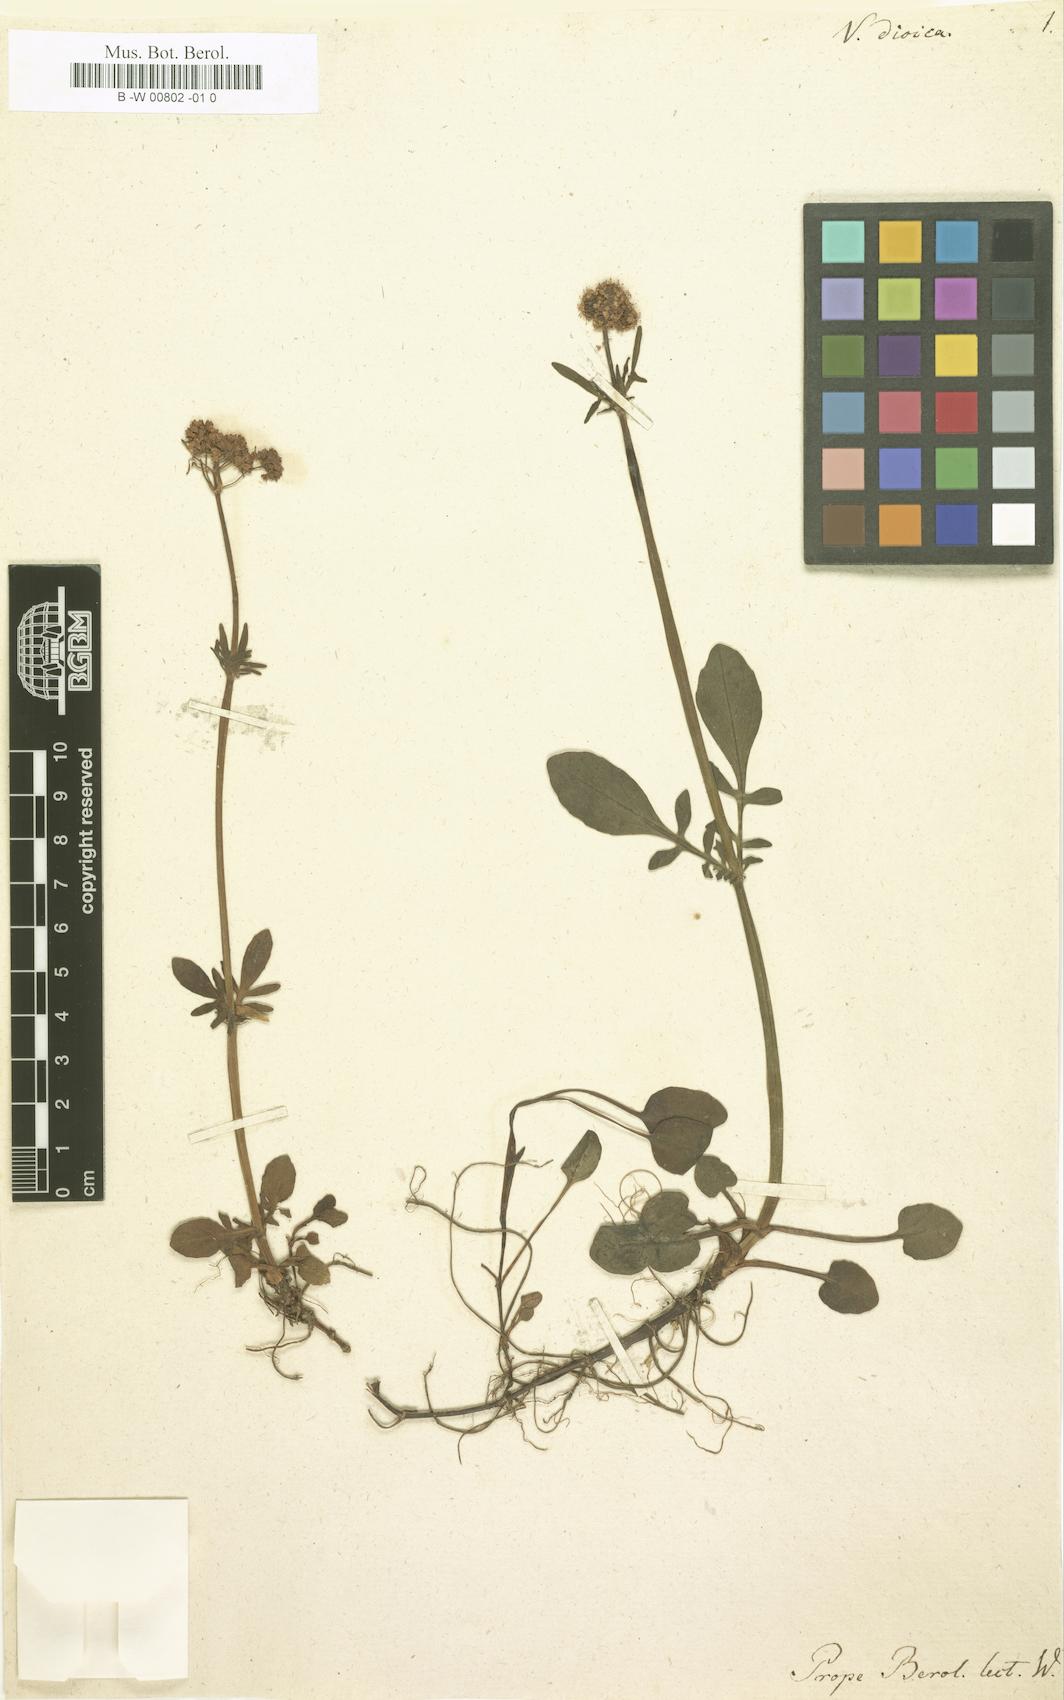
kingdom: Plantae
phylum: Tracheophyta
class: Magnoliopsida
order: Dipsacales
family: Caprifoliaceae
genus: Valeriana
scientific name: Valeriana dioica
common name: Marsh valerian
